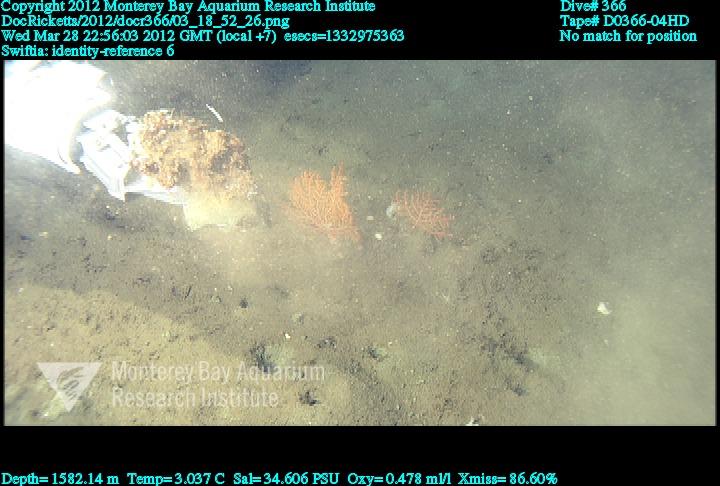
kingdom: Animalia
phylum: Cnidaria
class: Anthozoa
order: Malacalcyonacea
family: Plexauridae
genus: Swiftia
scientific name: Swiftia
